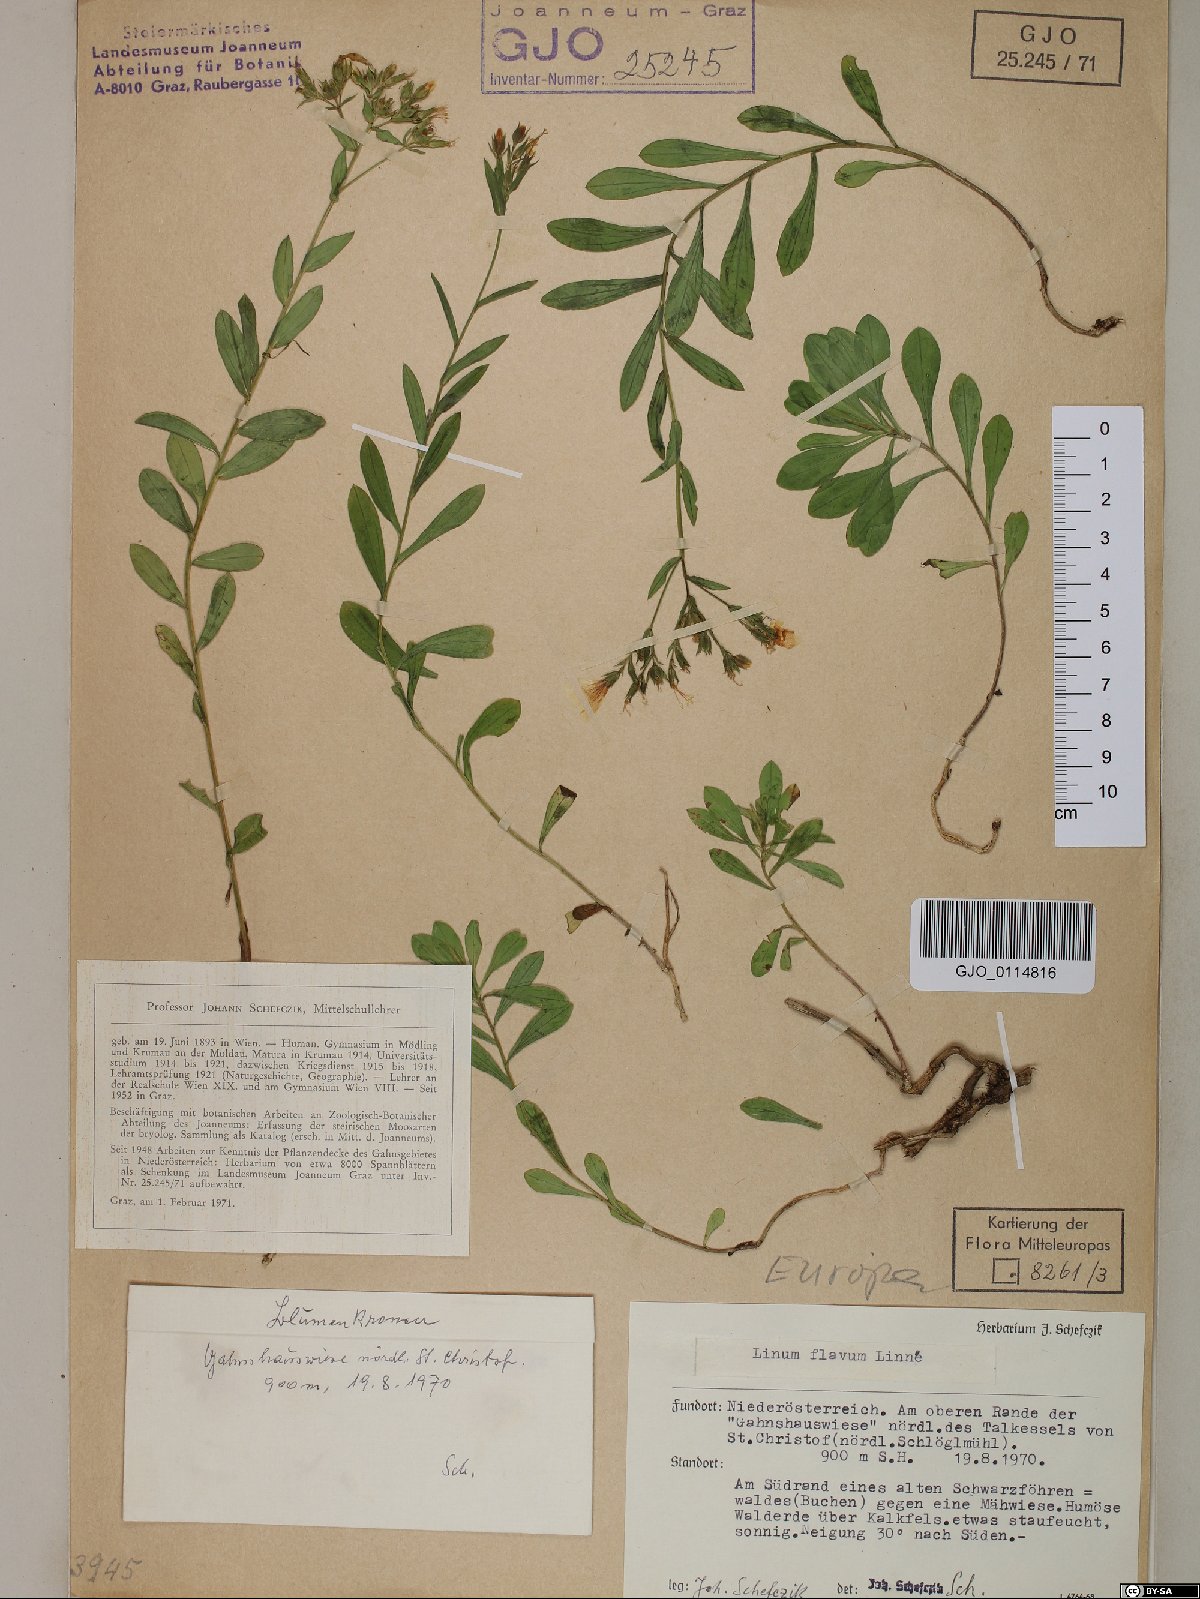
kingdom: Plantae
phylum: Tracheophyta
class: Magnoliopsida
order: Malpighiales
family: Linaceae
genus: Linum
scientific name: Linum flavum
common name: Yellow flax
